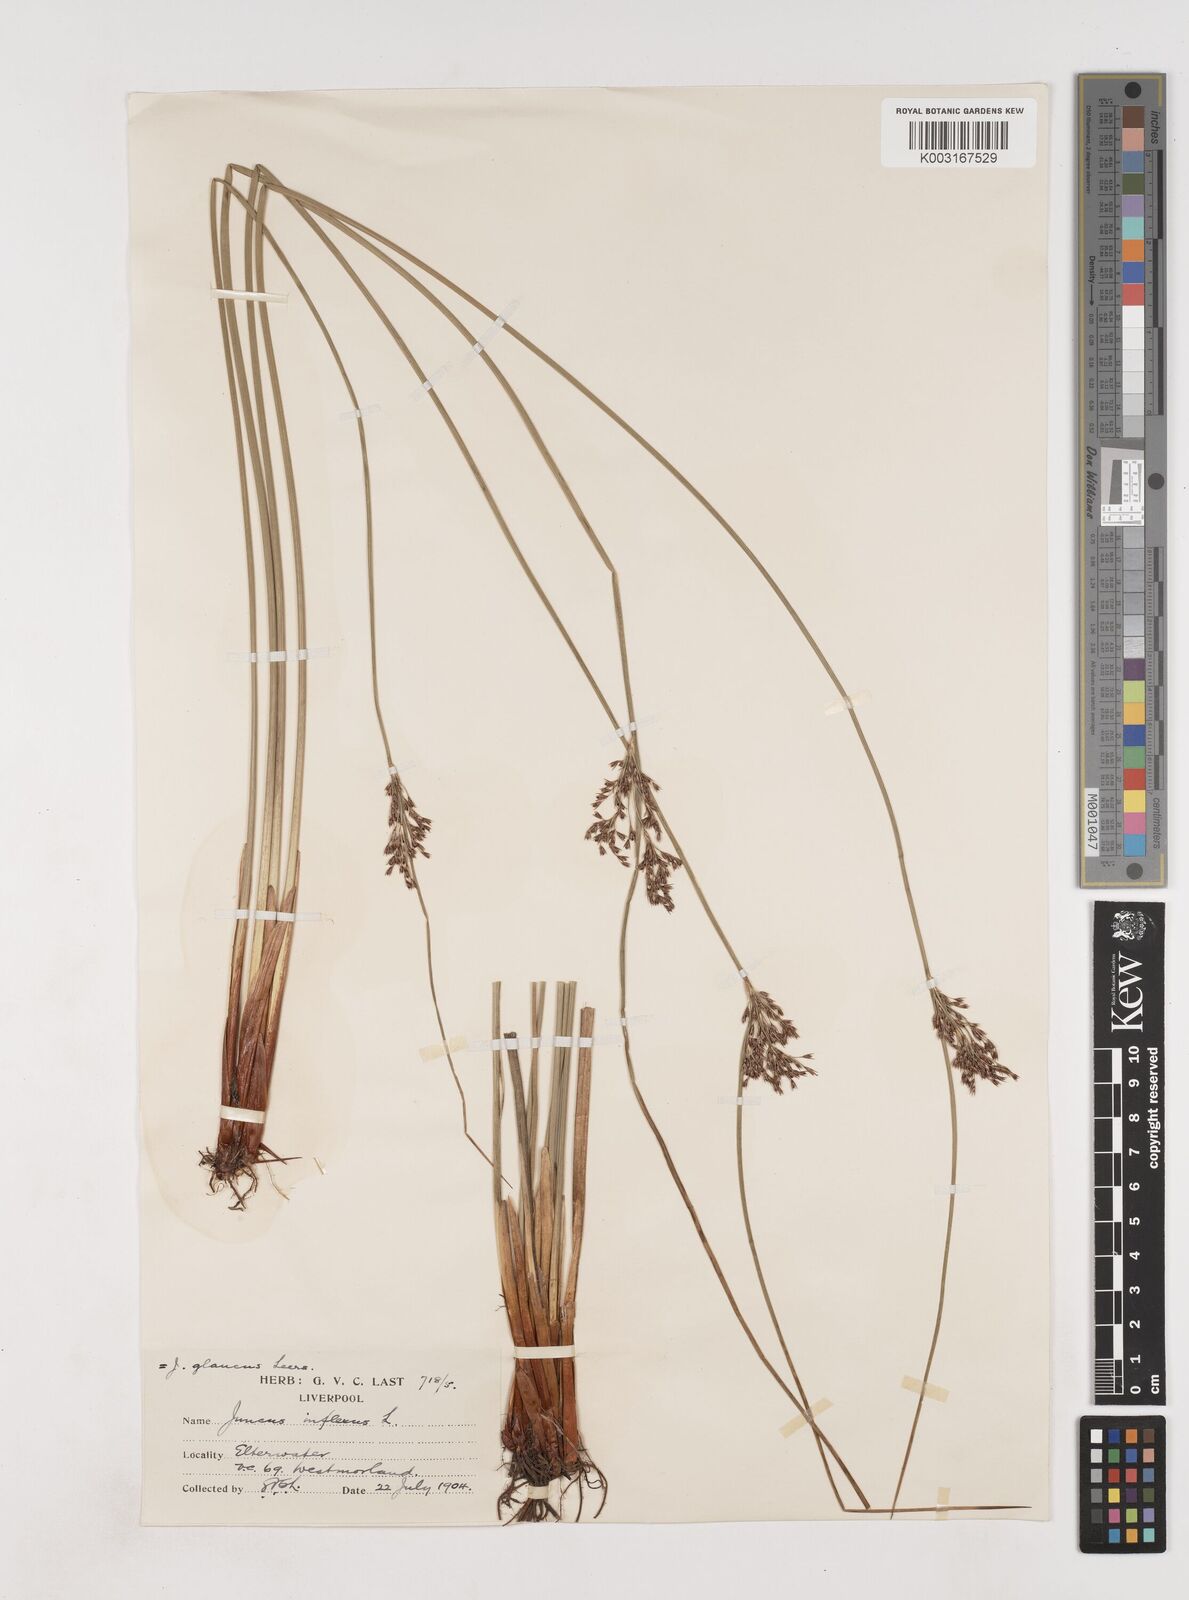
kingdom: Plantae
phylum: Tracheophyta
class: Liliopsida
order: Poales
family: Juncaceae
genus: Juncus
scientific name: Juncus inflexus
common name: Hard rush
